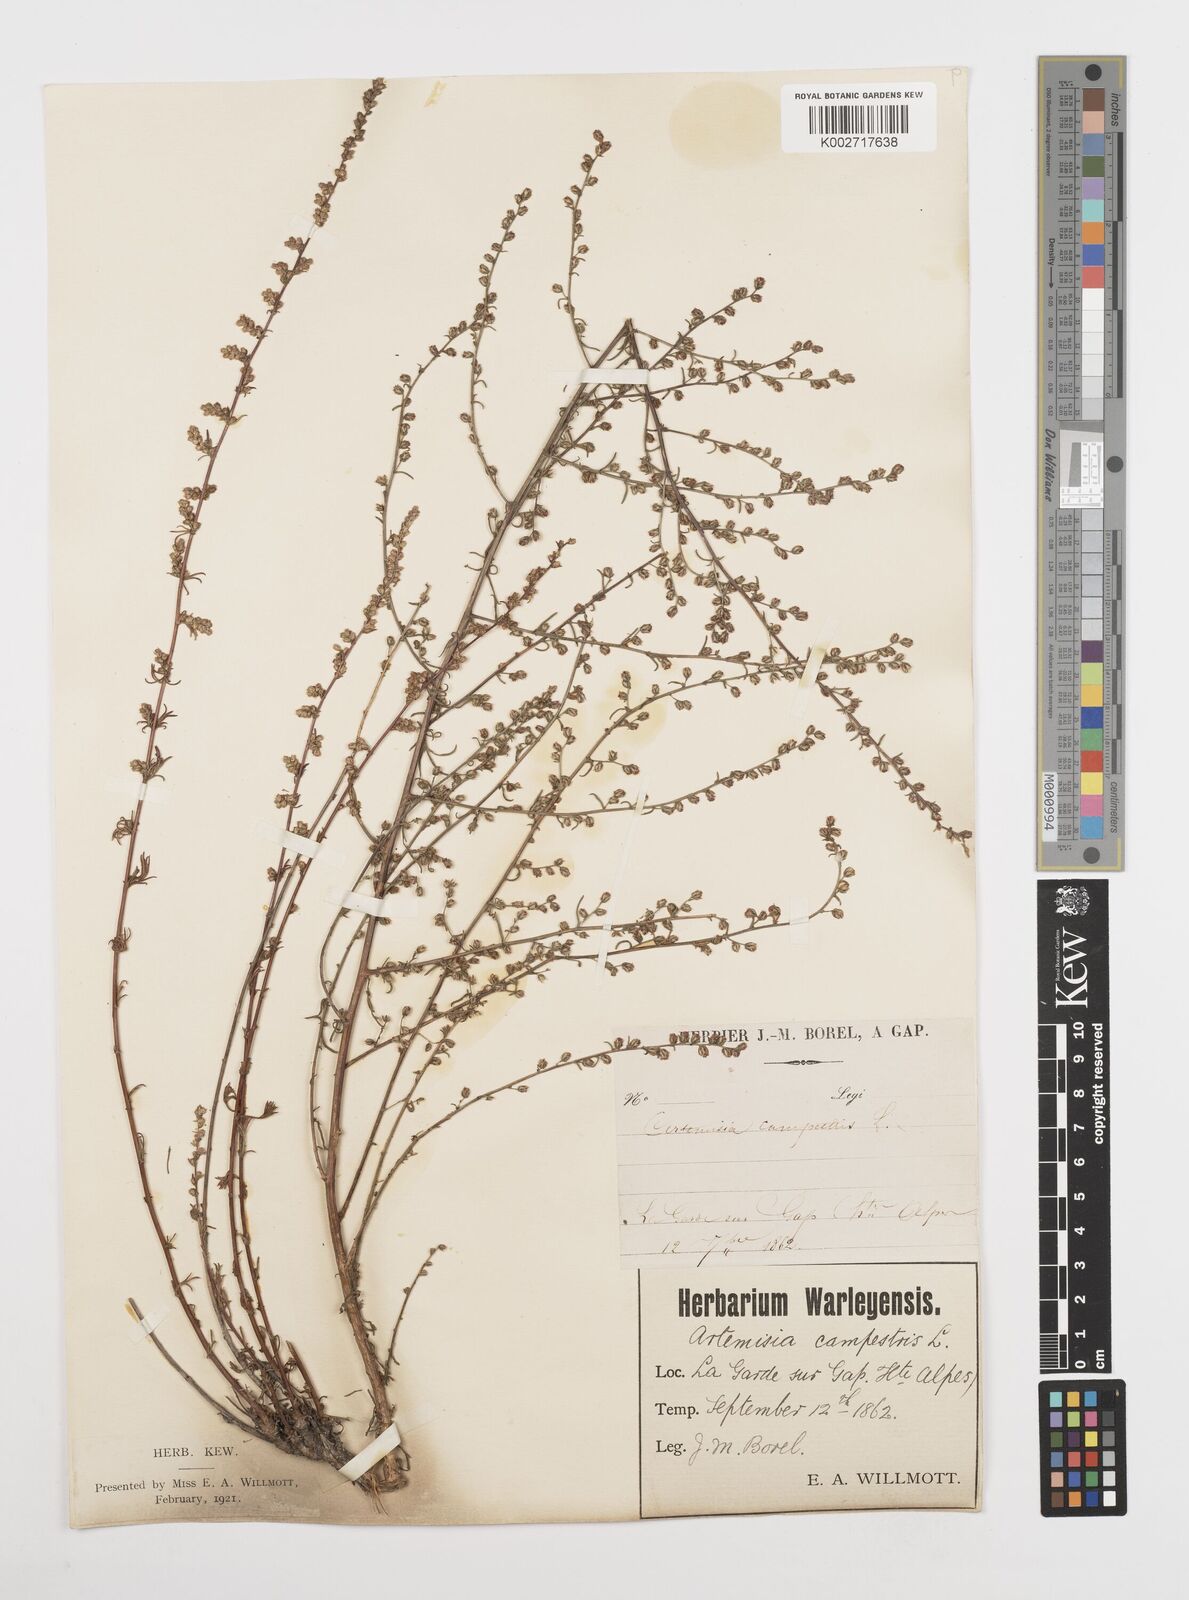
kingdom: Plantae
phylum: Tracheophyta
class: Magnoliopsida
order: Asterales
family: Asteraceae
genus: Artemisia
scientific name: Artemisia campestris
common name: Field wormwood
